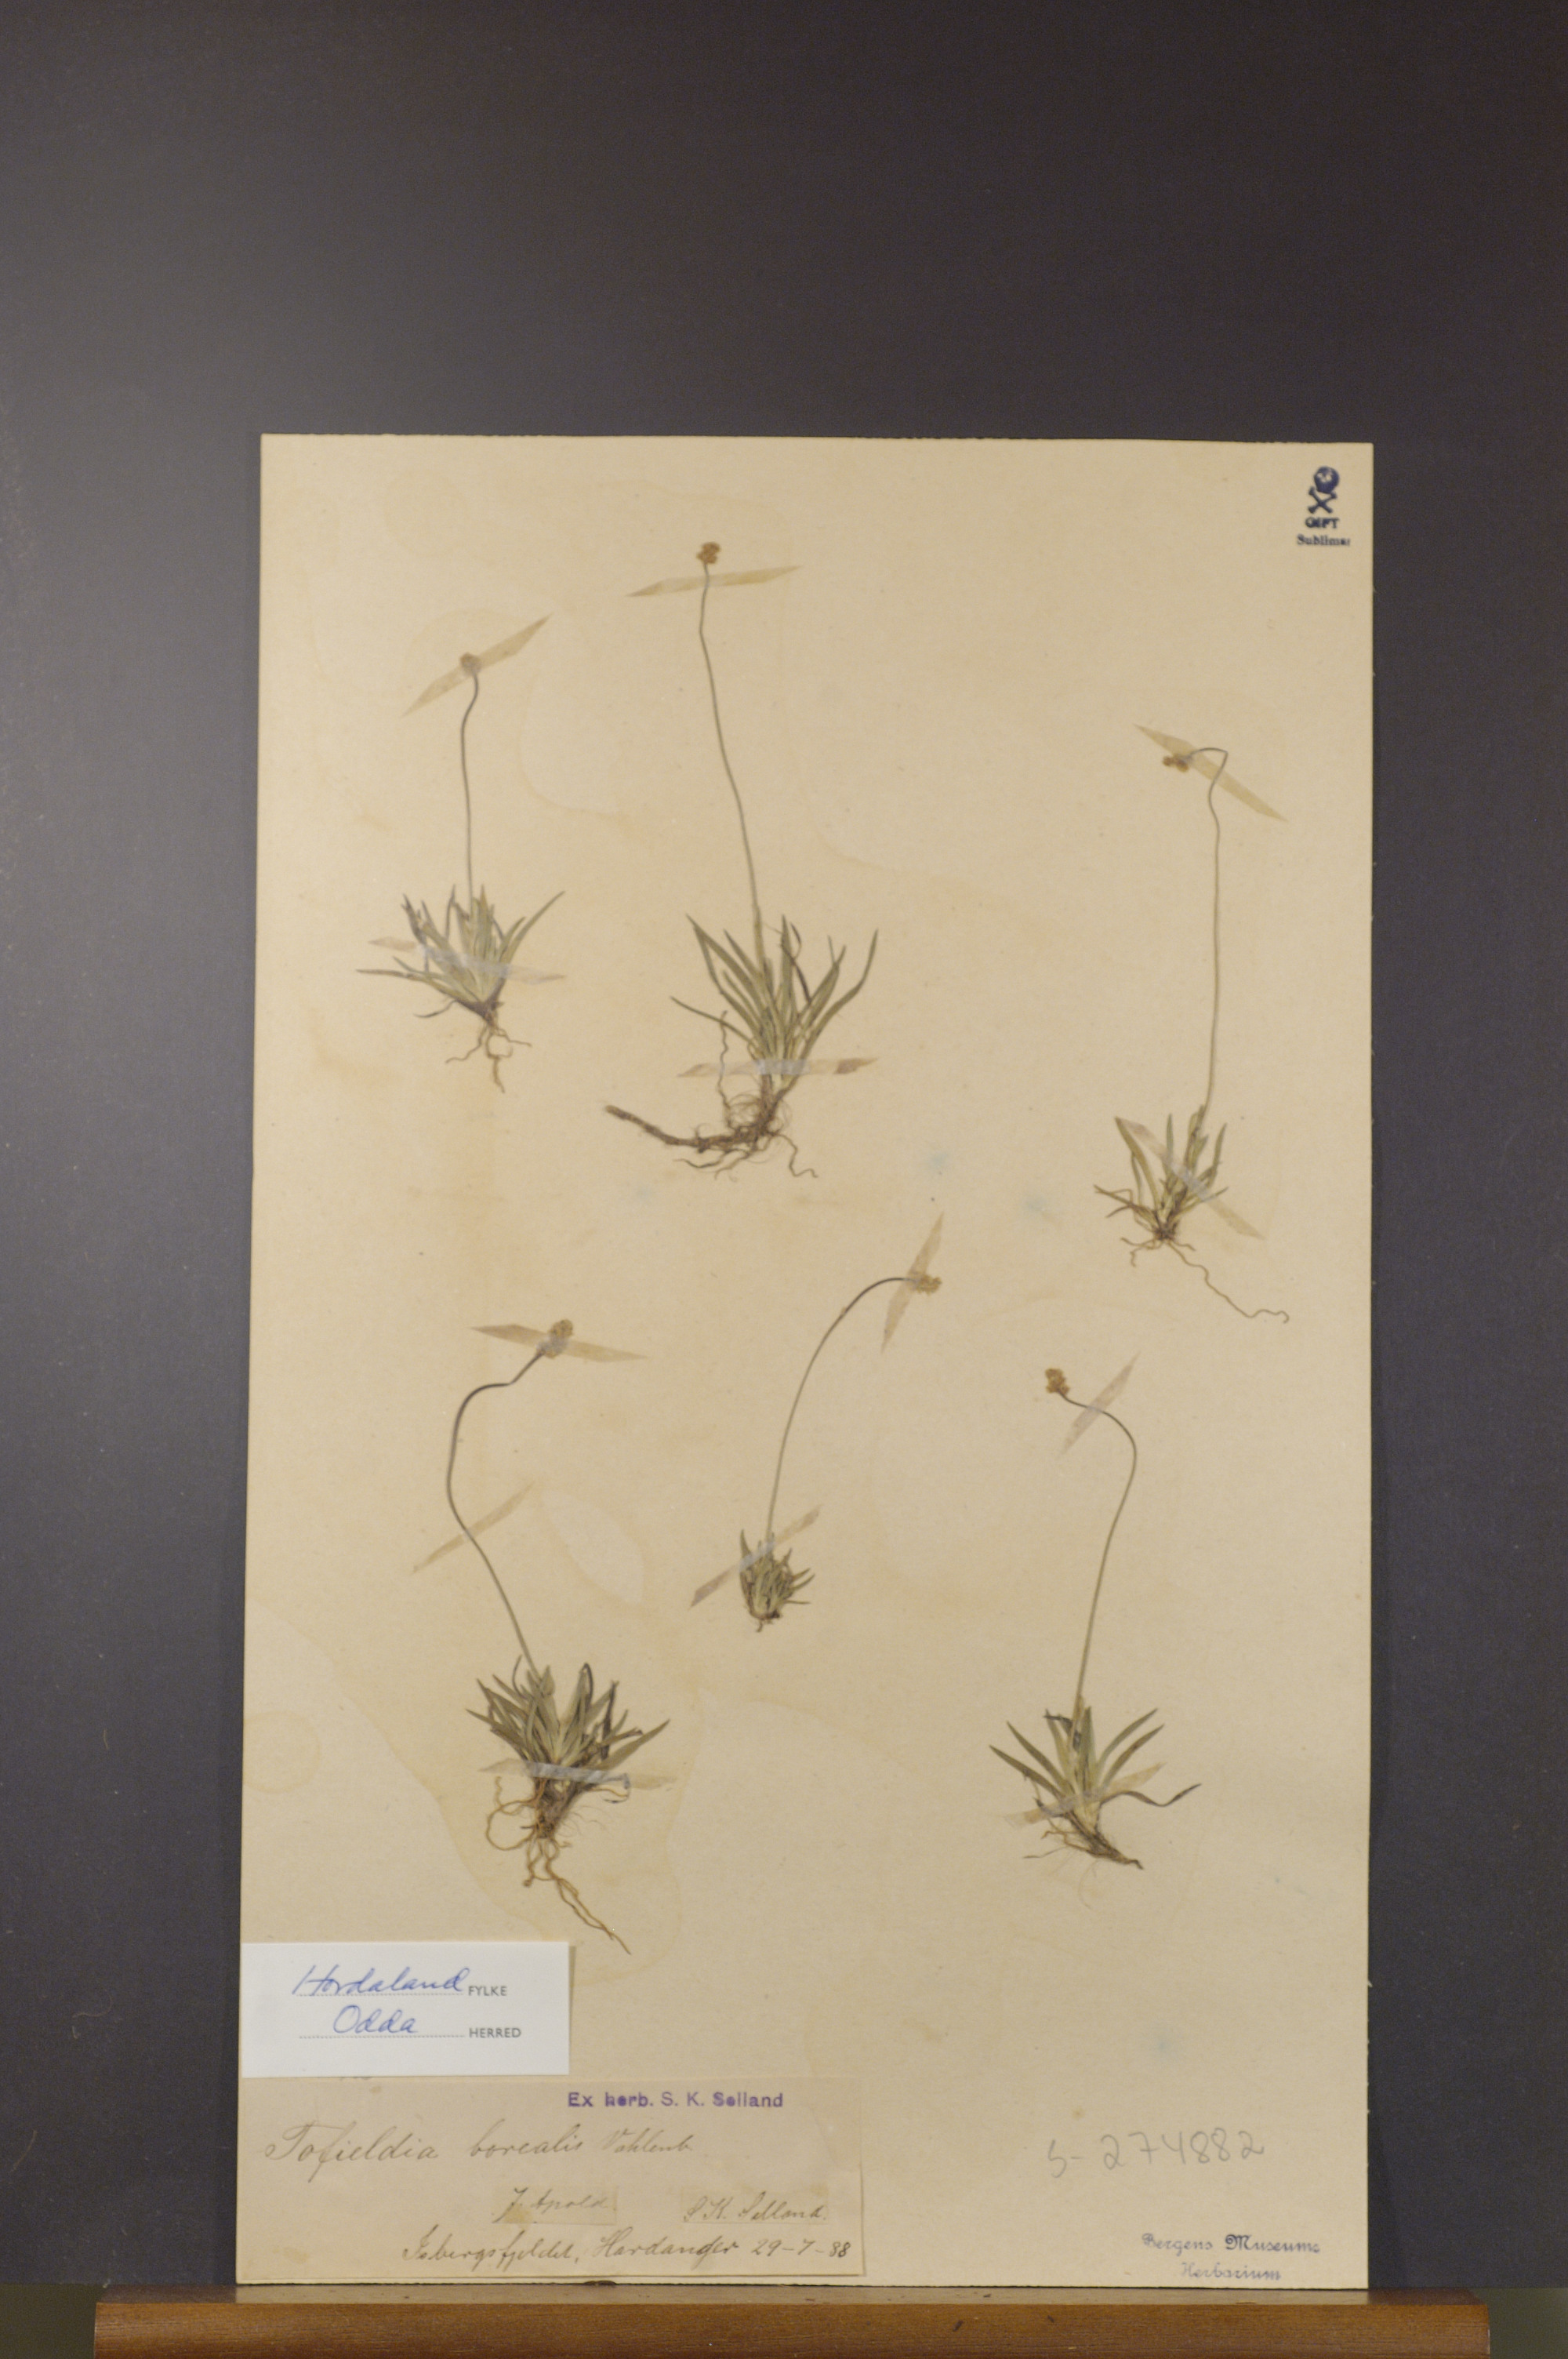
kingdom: Plantae
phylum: Tracheophyta
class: Liliopsida
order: Alismatales
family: Tofieldiaceae
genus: Tofieldia
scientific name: Tofieldia pusilla
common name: Scottish false asphodel
